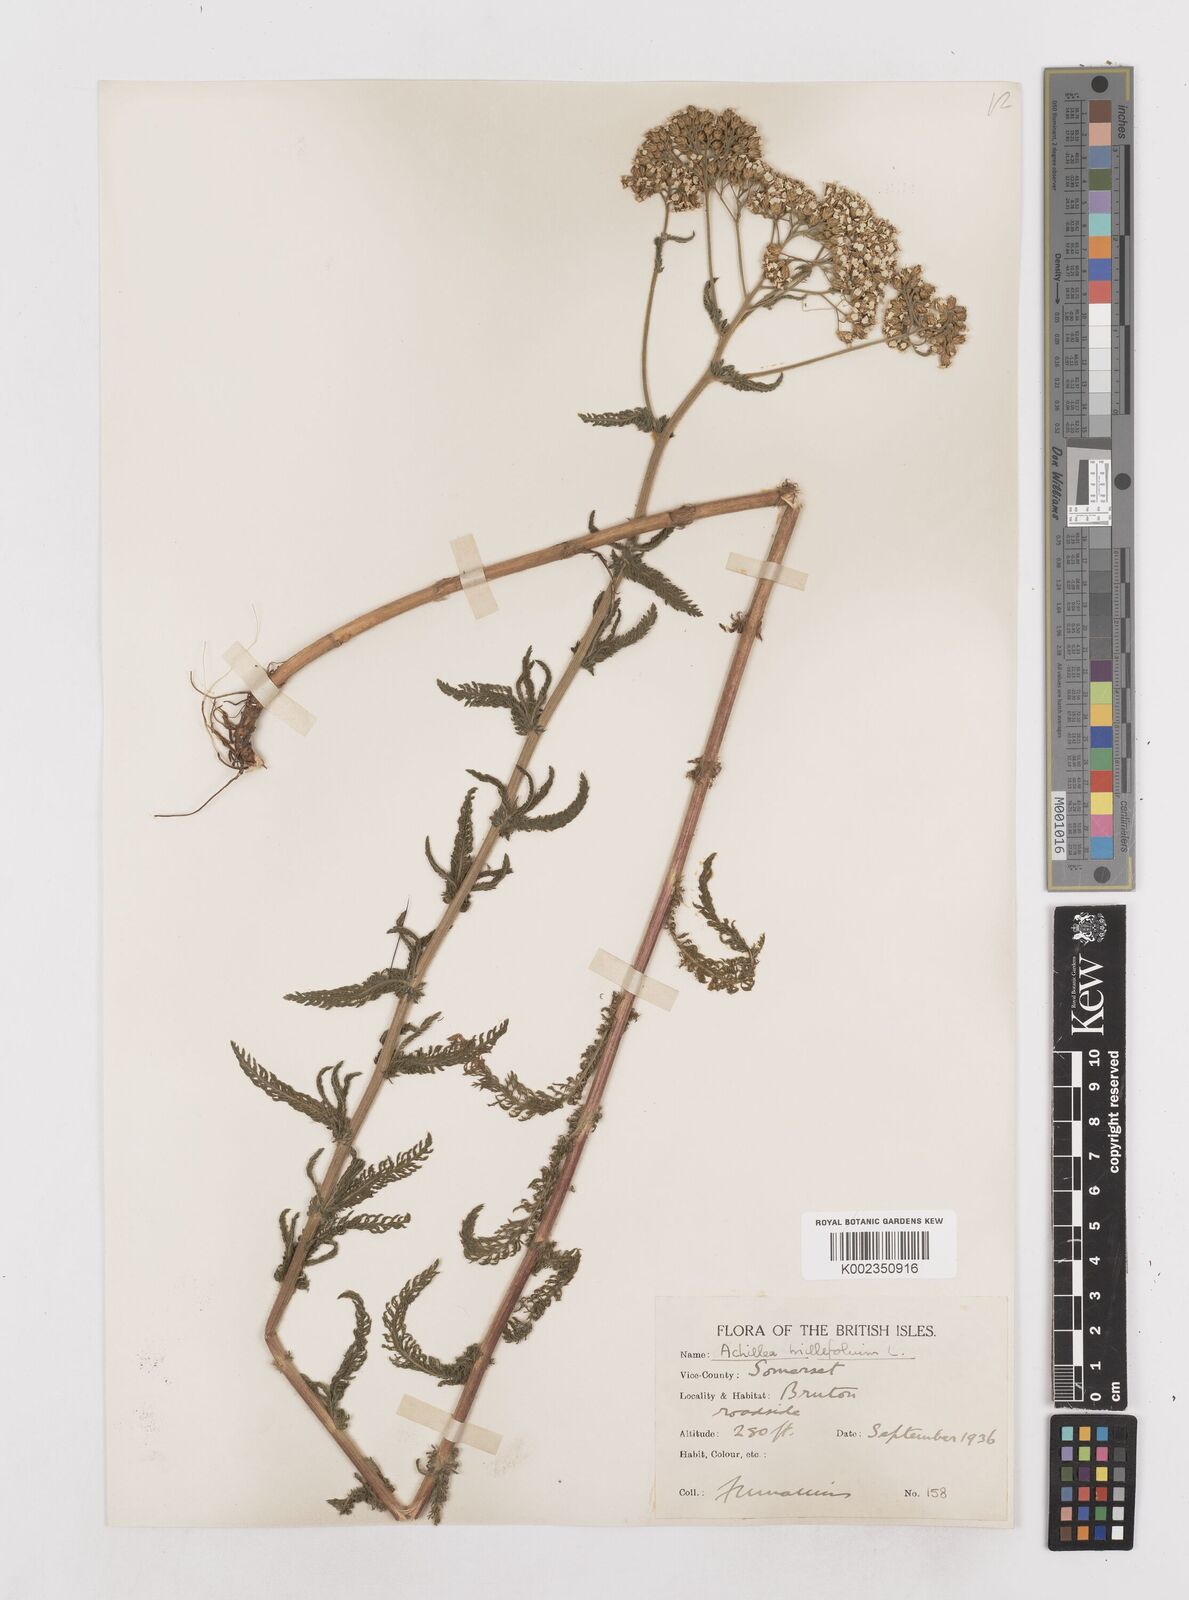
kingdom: Plantae
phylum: Tracheophyta
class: Magnoliopsida
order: Asterales
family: Asteraceae
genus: Achillea
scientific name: Achillea millefolium
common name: Yarrow
